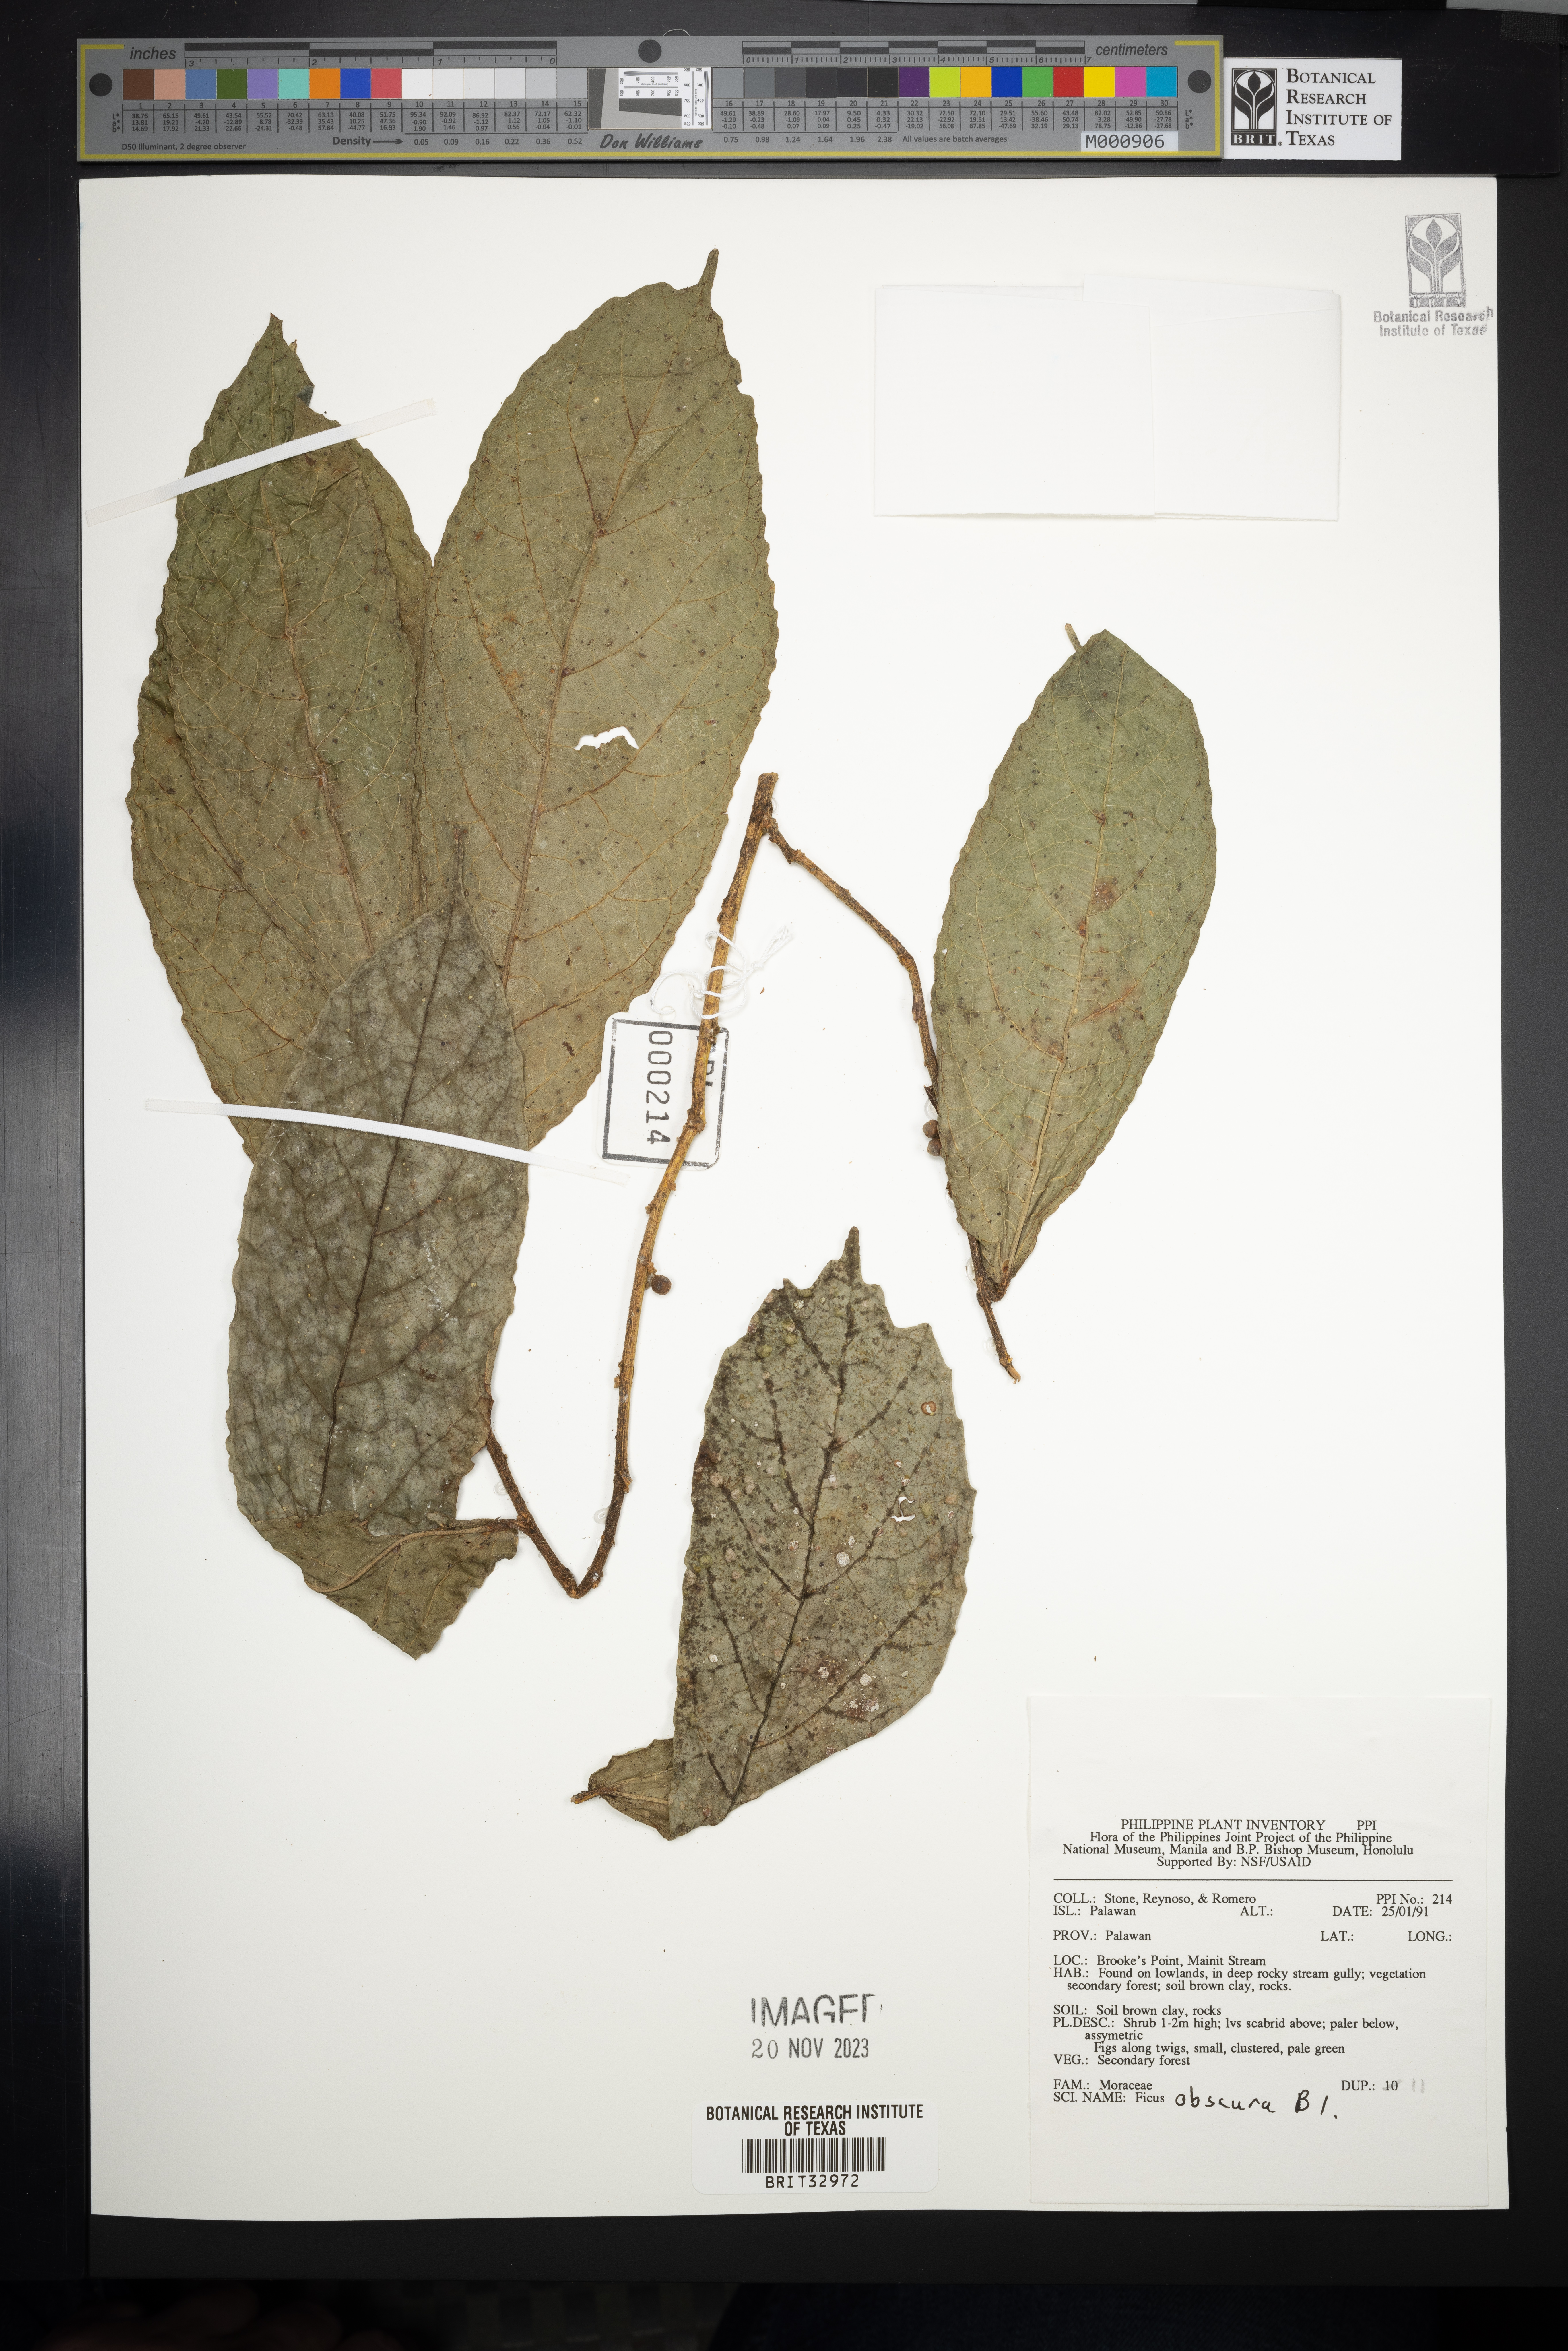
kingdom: Plantae
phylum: Tracheophyta
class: Magnoliopsida
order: Rosales
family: Moraceae
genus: Ficus
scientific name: Ficus obscura
